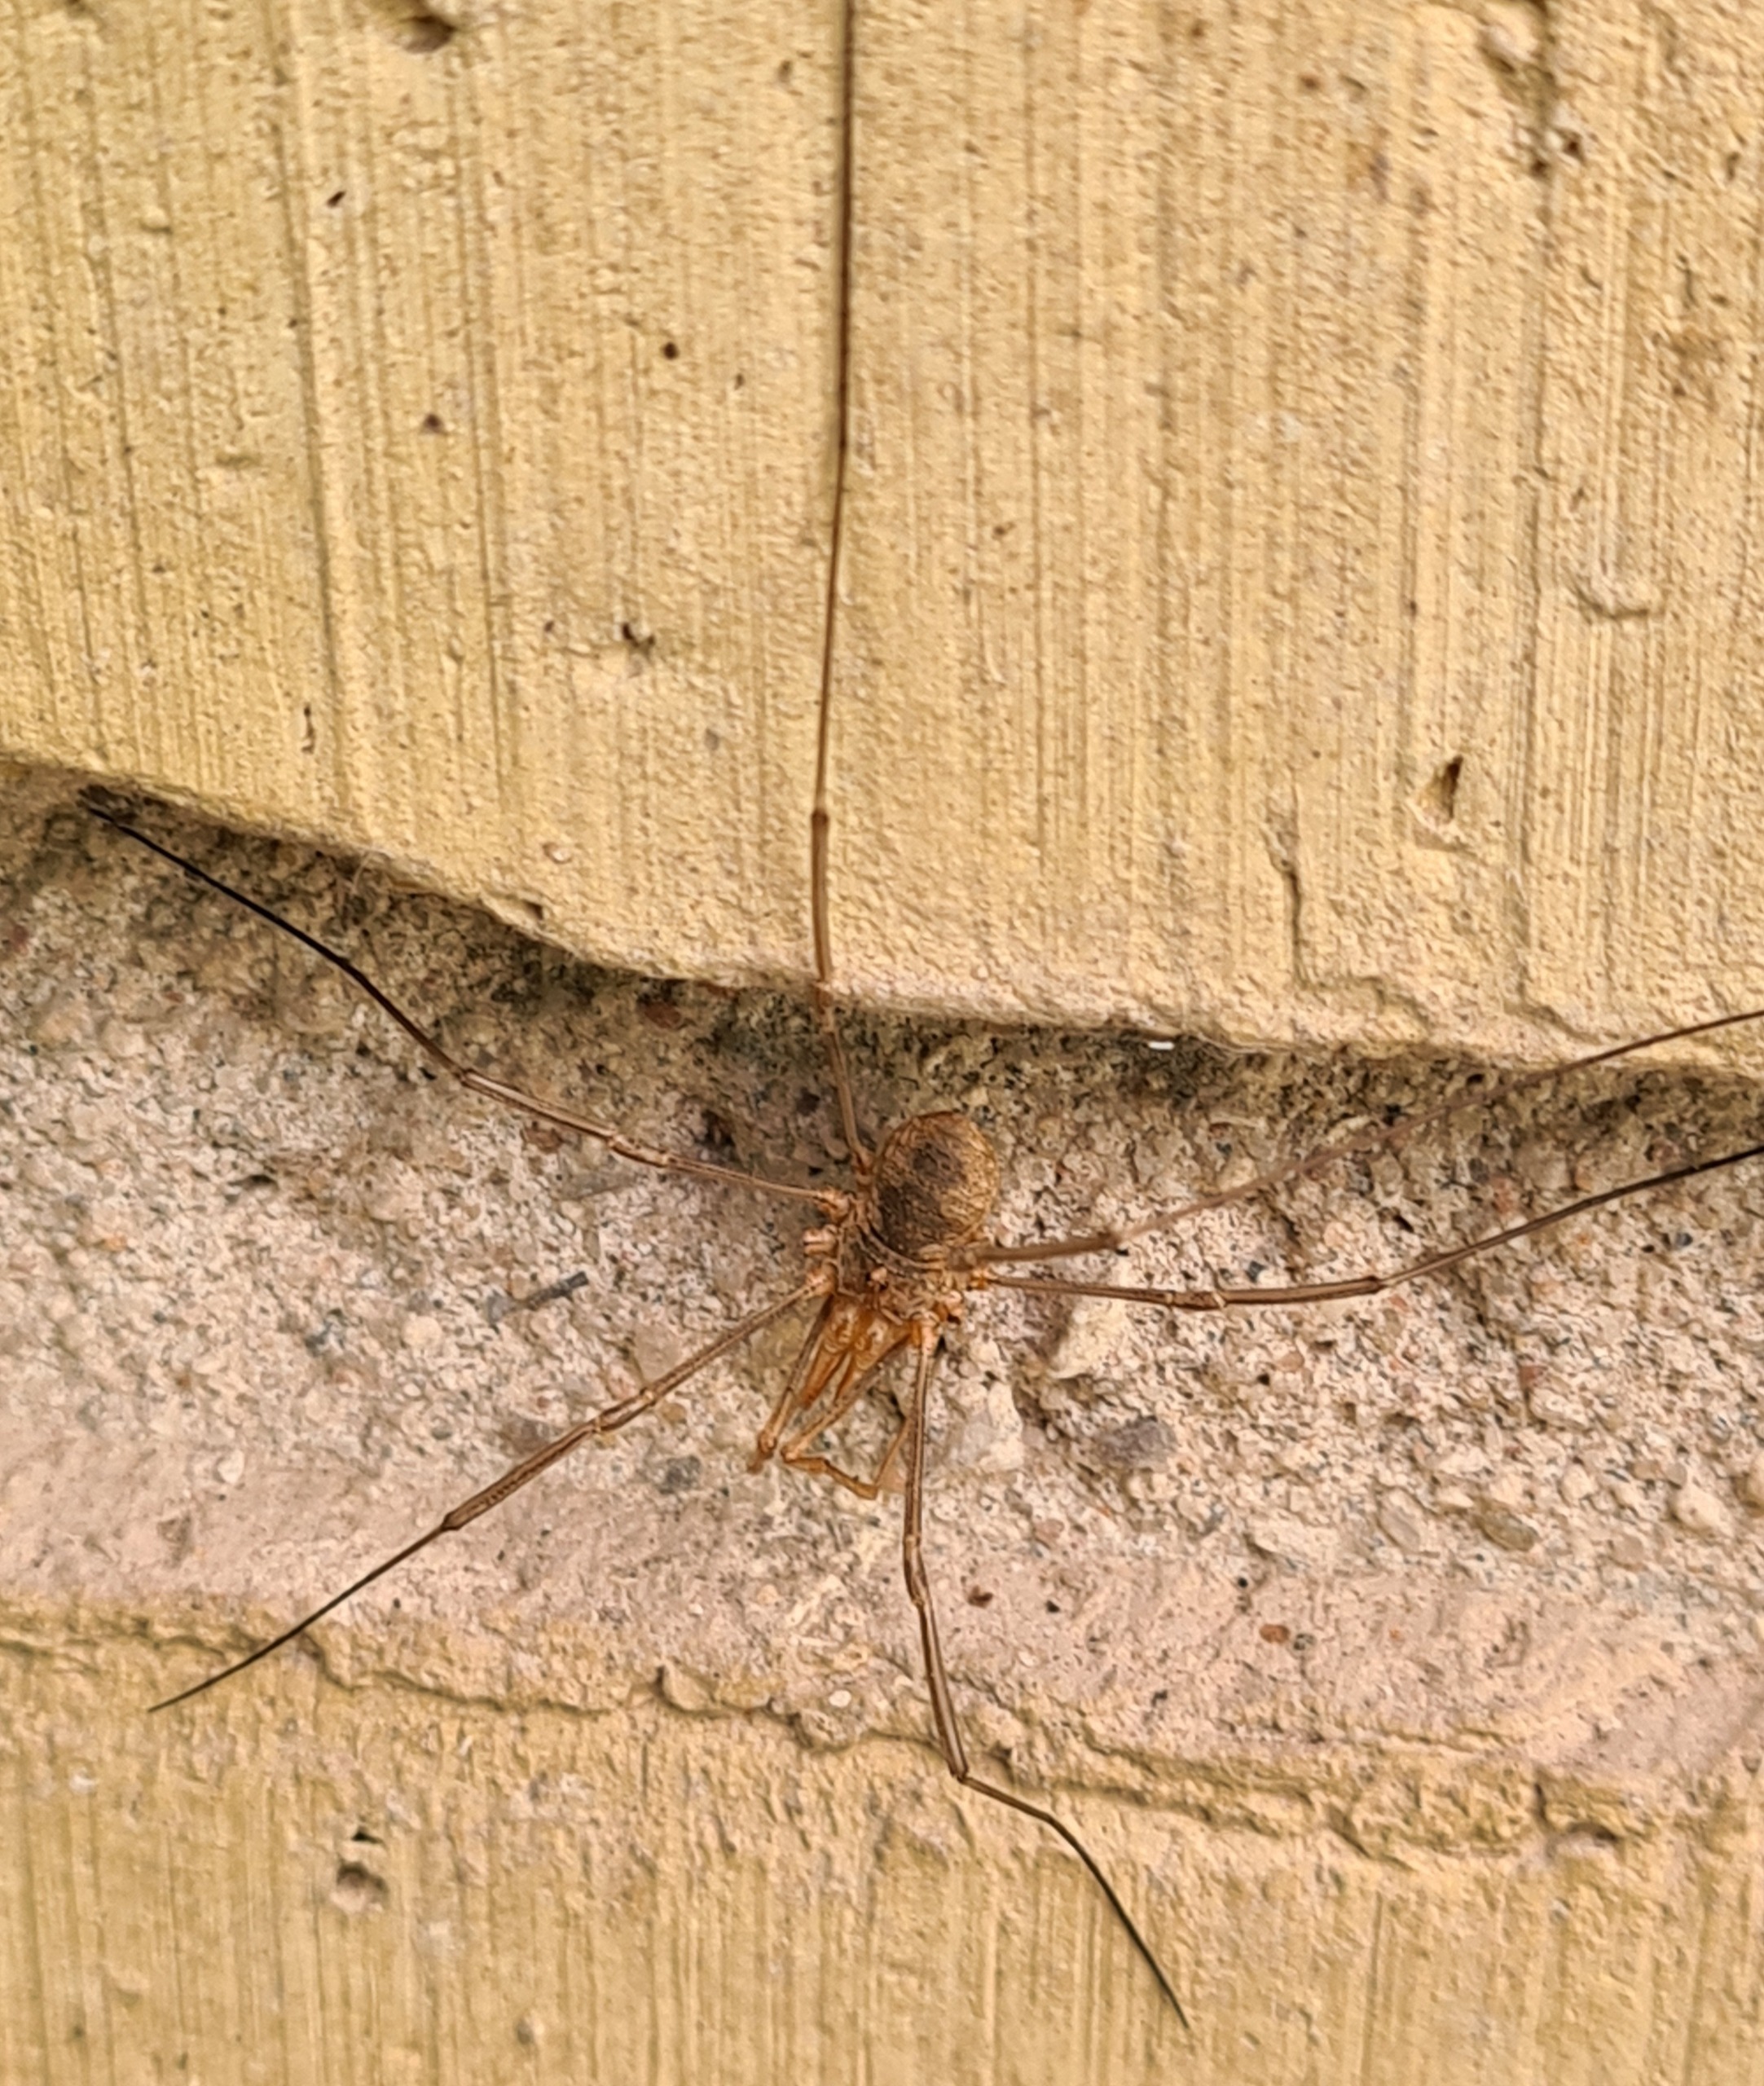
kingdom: Animalia
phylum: Arthropoda
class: Arachnida
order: Opiliones
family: Phalangiidae
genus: Phalangium
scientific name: Phalangium opilio
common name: Hornmejer
